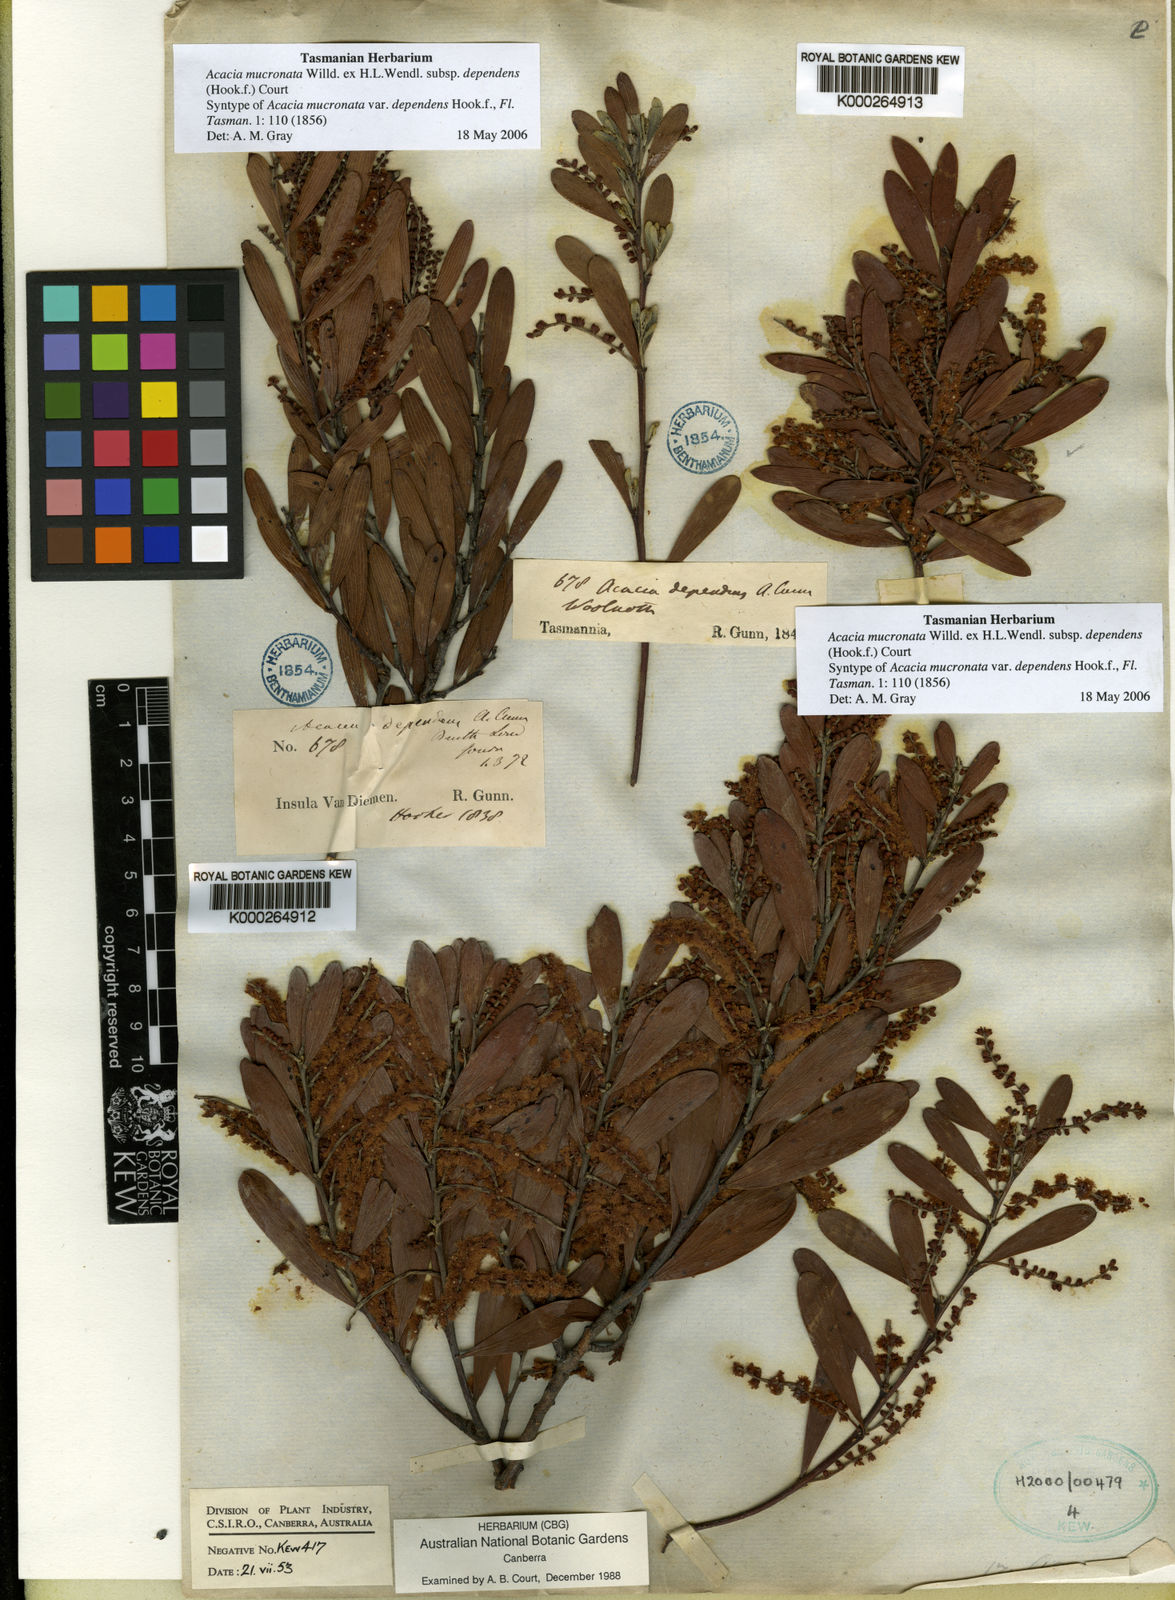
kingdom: Plantae
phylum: Tracheophyta
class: Magnoliopsida
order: Fabales
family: Fabaceae
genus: Acacia
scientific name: Acacia mucronata
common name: Variable sallow wattle
